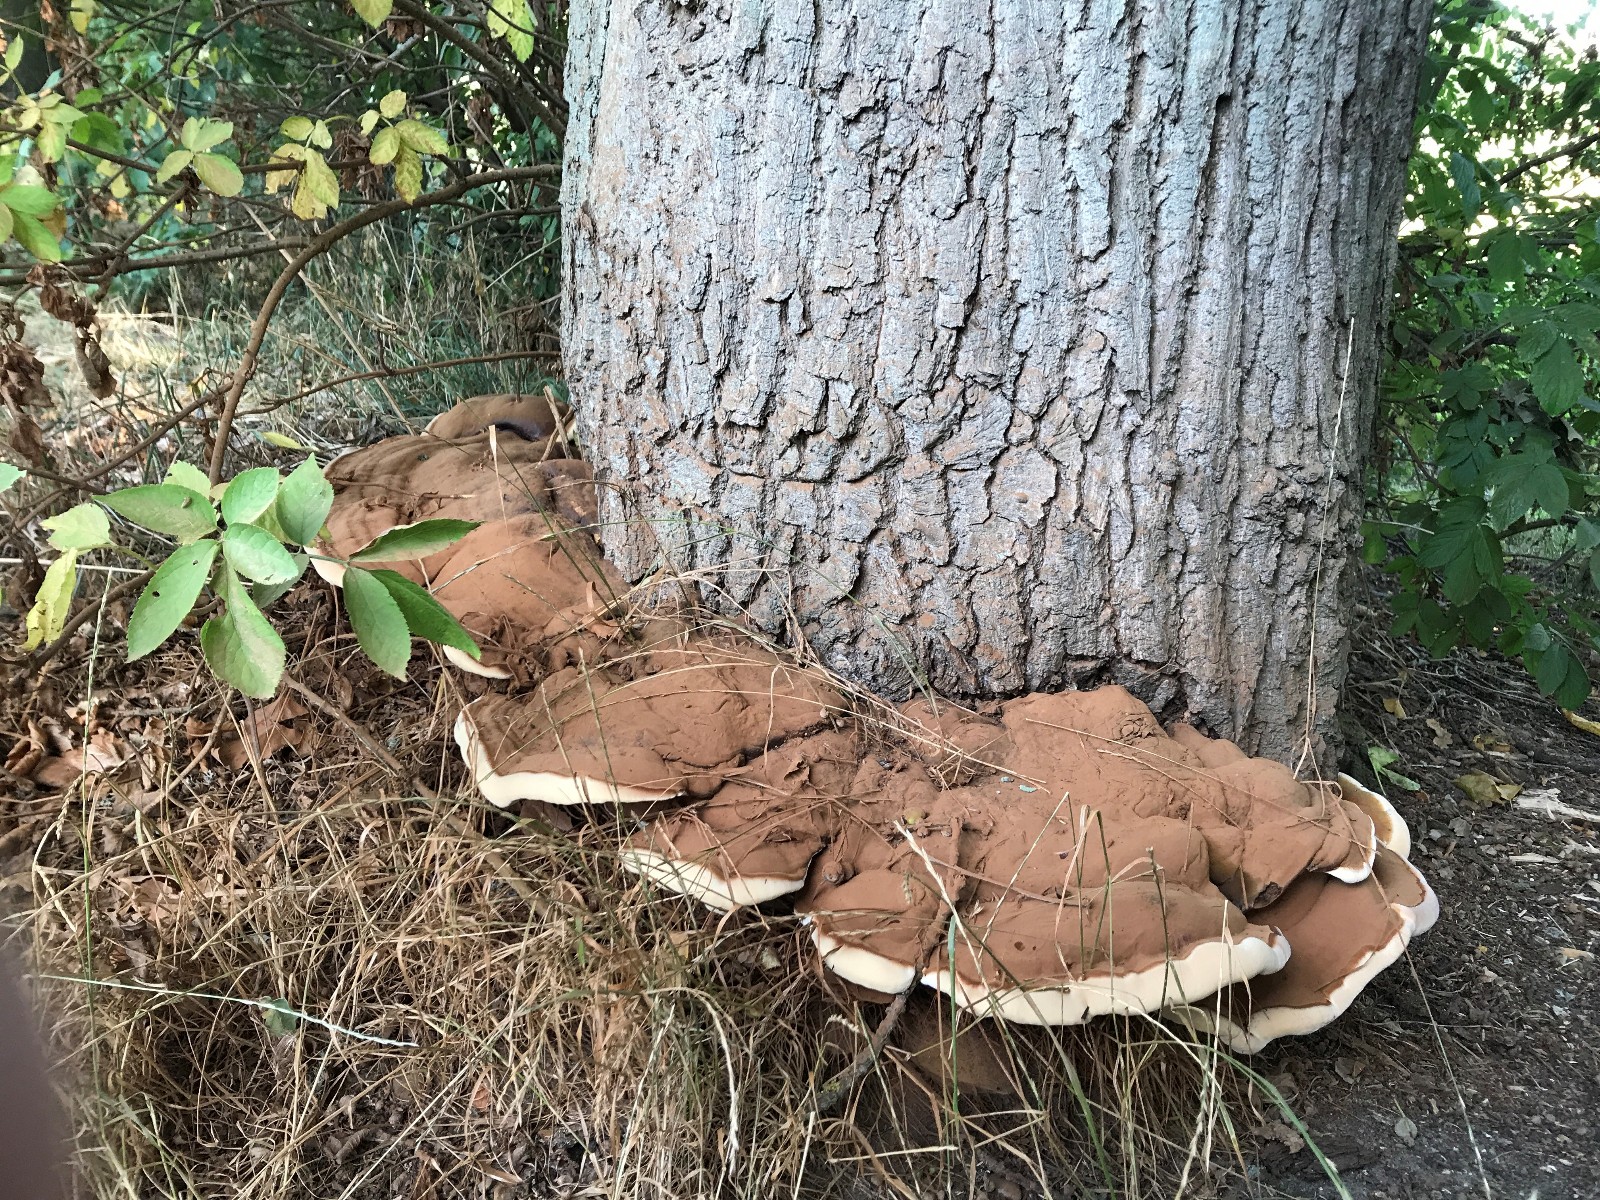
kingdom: Fungi
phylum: Basidiomycota
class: Agaricomycetes
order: Polyporales
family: Polyporaceae
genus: Ganoderma
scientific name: Ganoderma resinaceum
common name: gyldenbrun lakporesvamp
